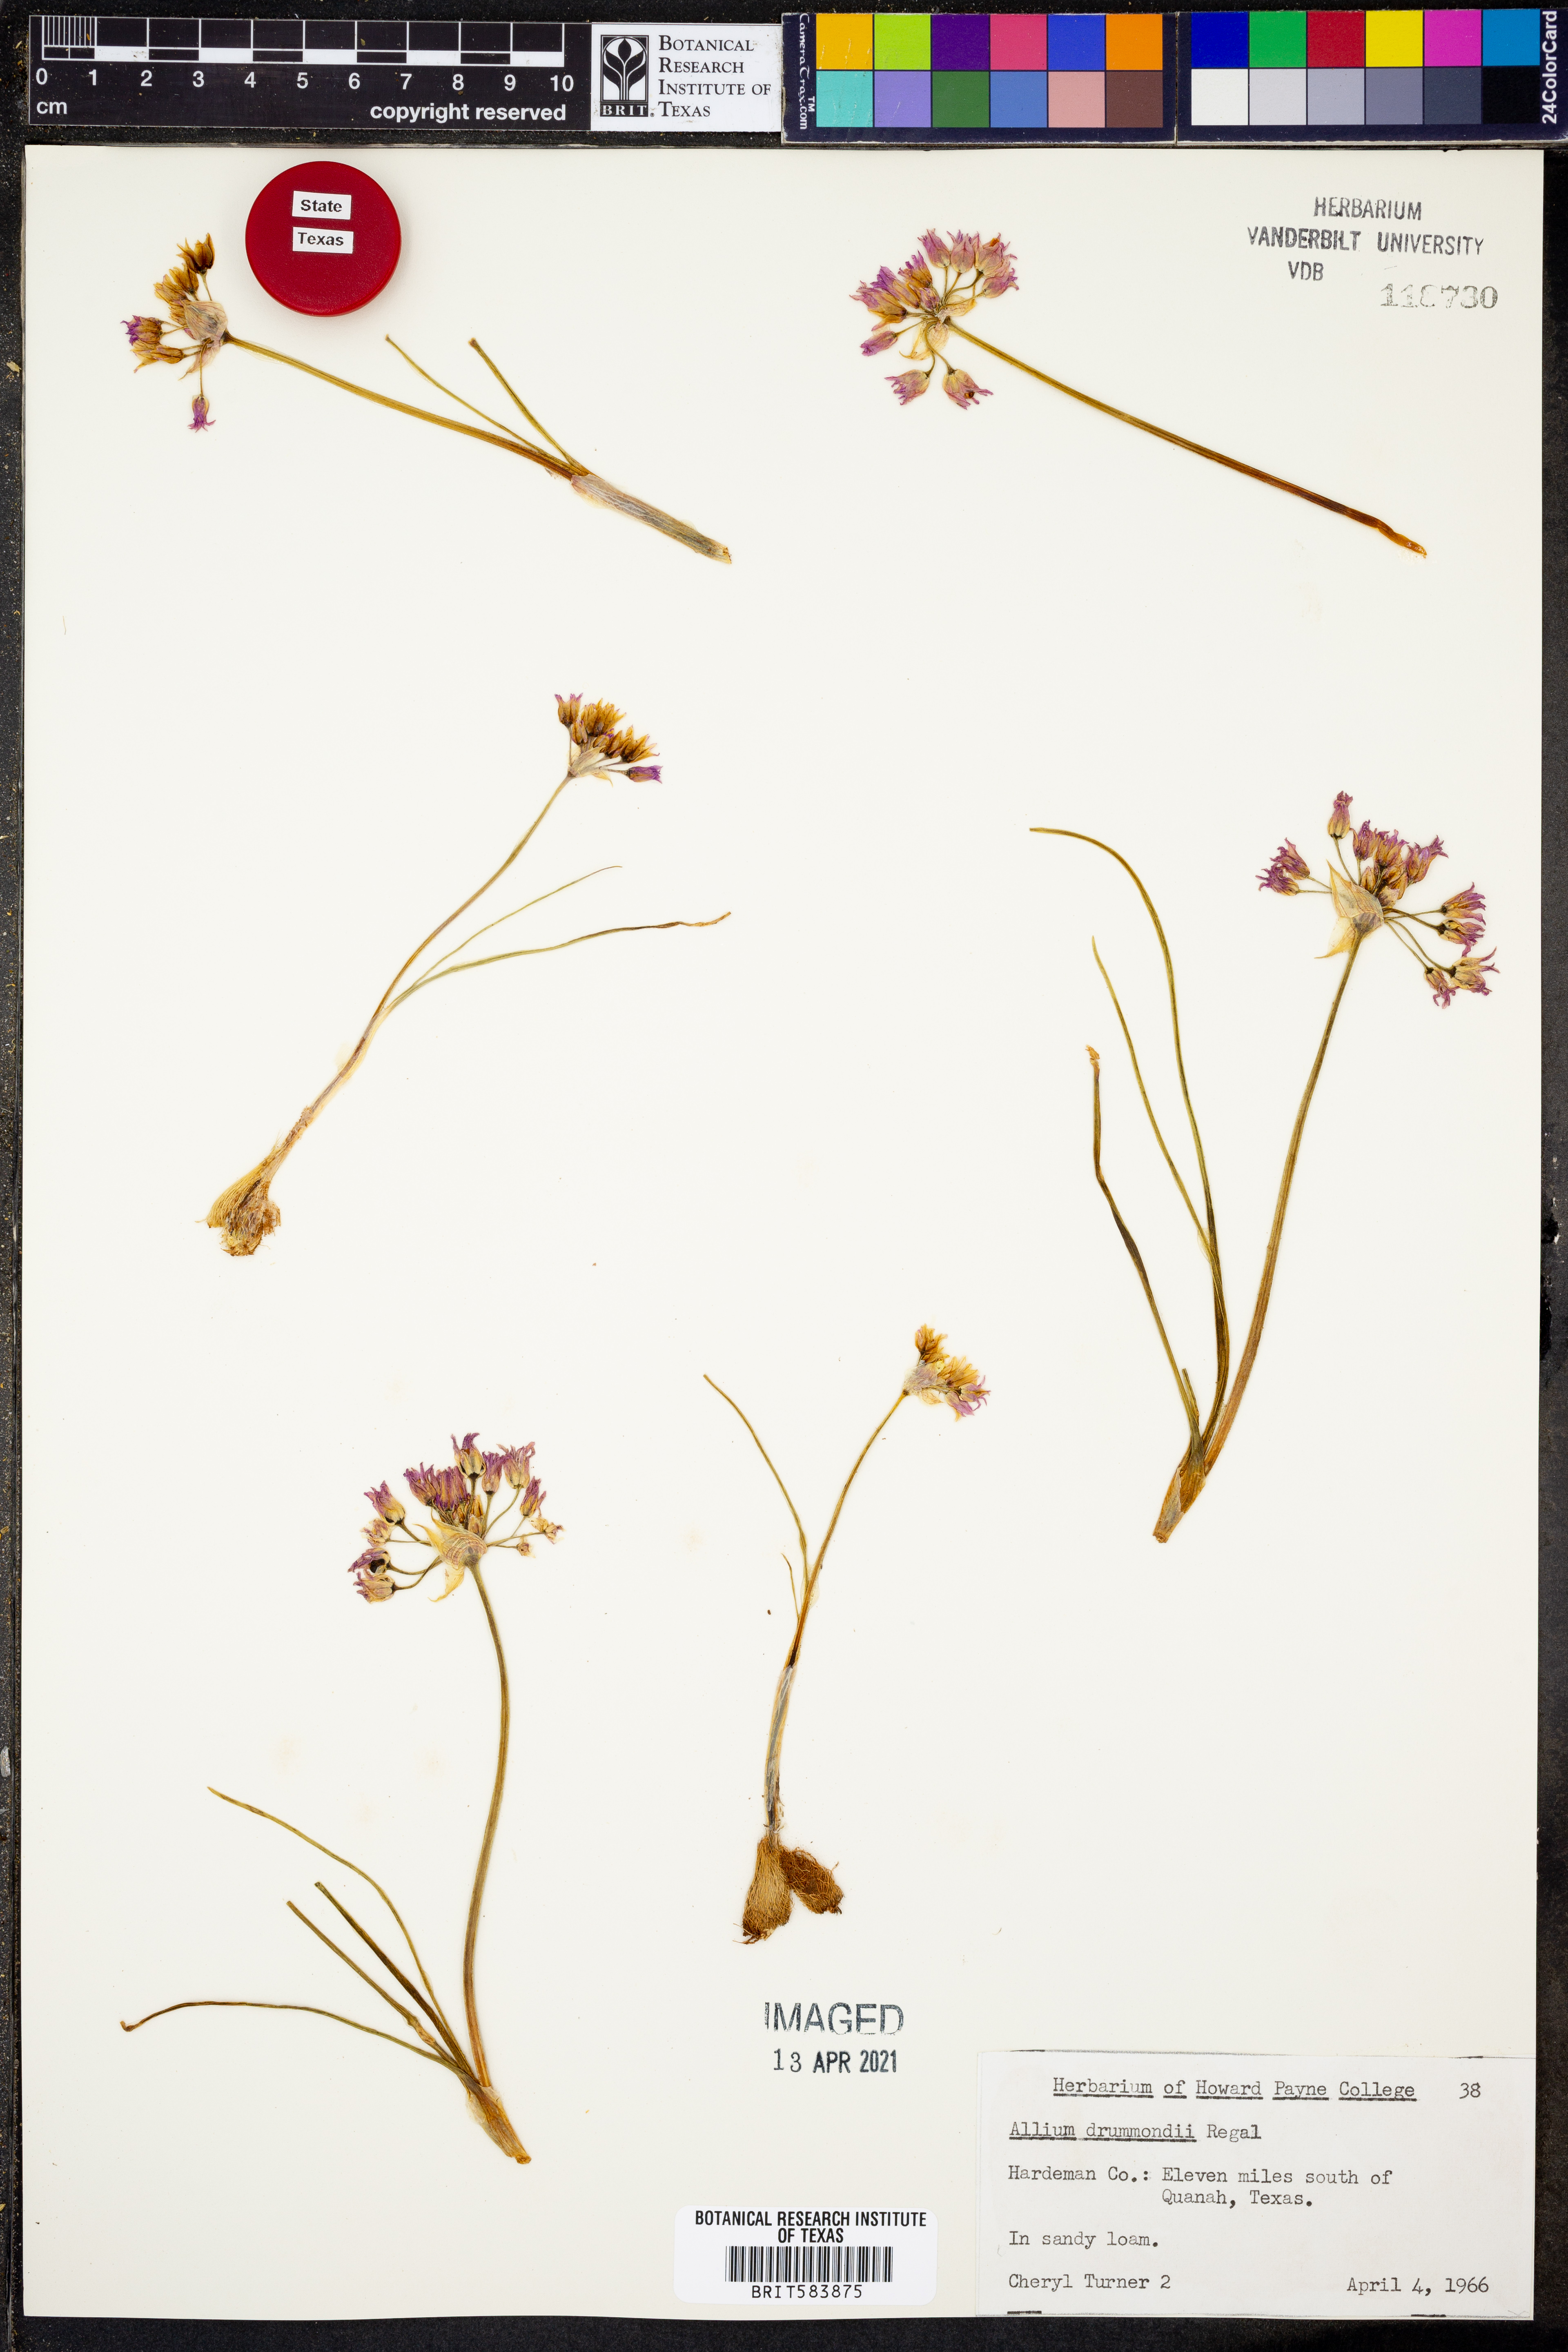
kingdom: Plantae
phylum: Tracheophyta
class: Liliopsida
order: Asparagales
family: Amaryllidaceae
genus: Allium
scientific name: Allium drummondii
